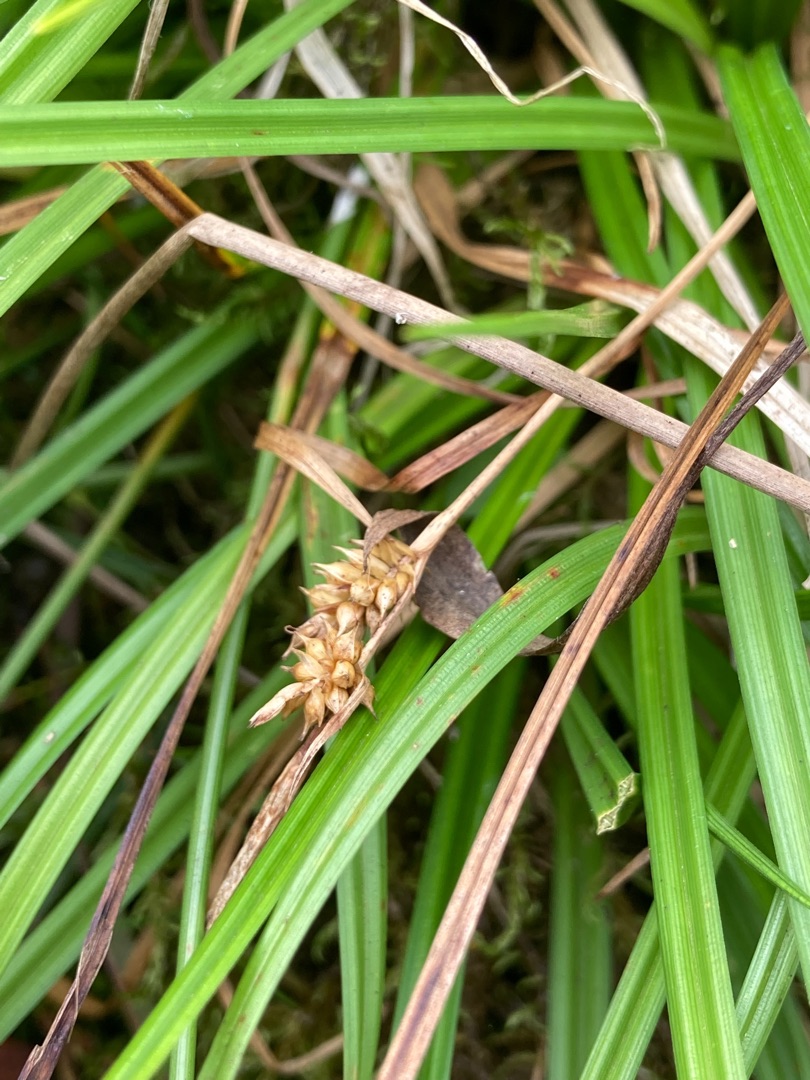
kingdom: Plantae
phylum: Tracheophyta
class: Liliopsida
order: Poales
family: Cyperaceae
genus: Carex
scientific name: Carex demissa
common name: Grøn star
